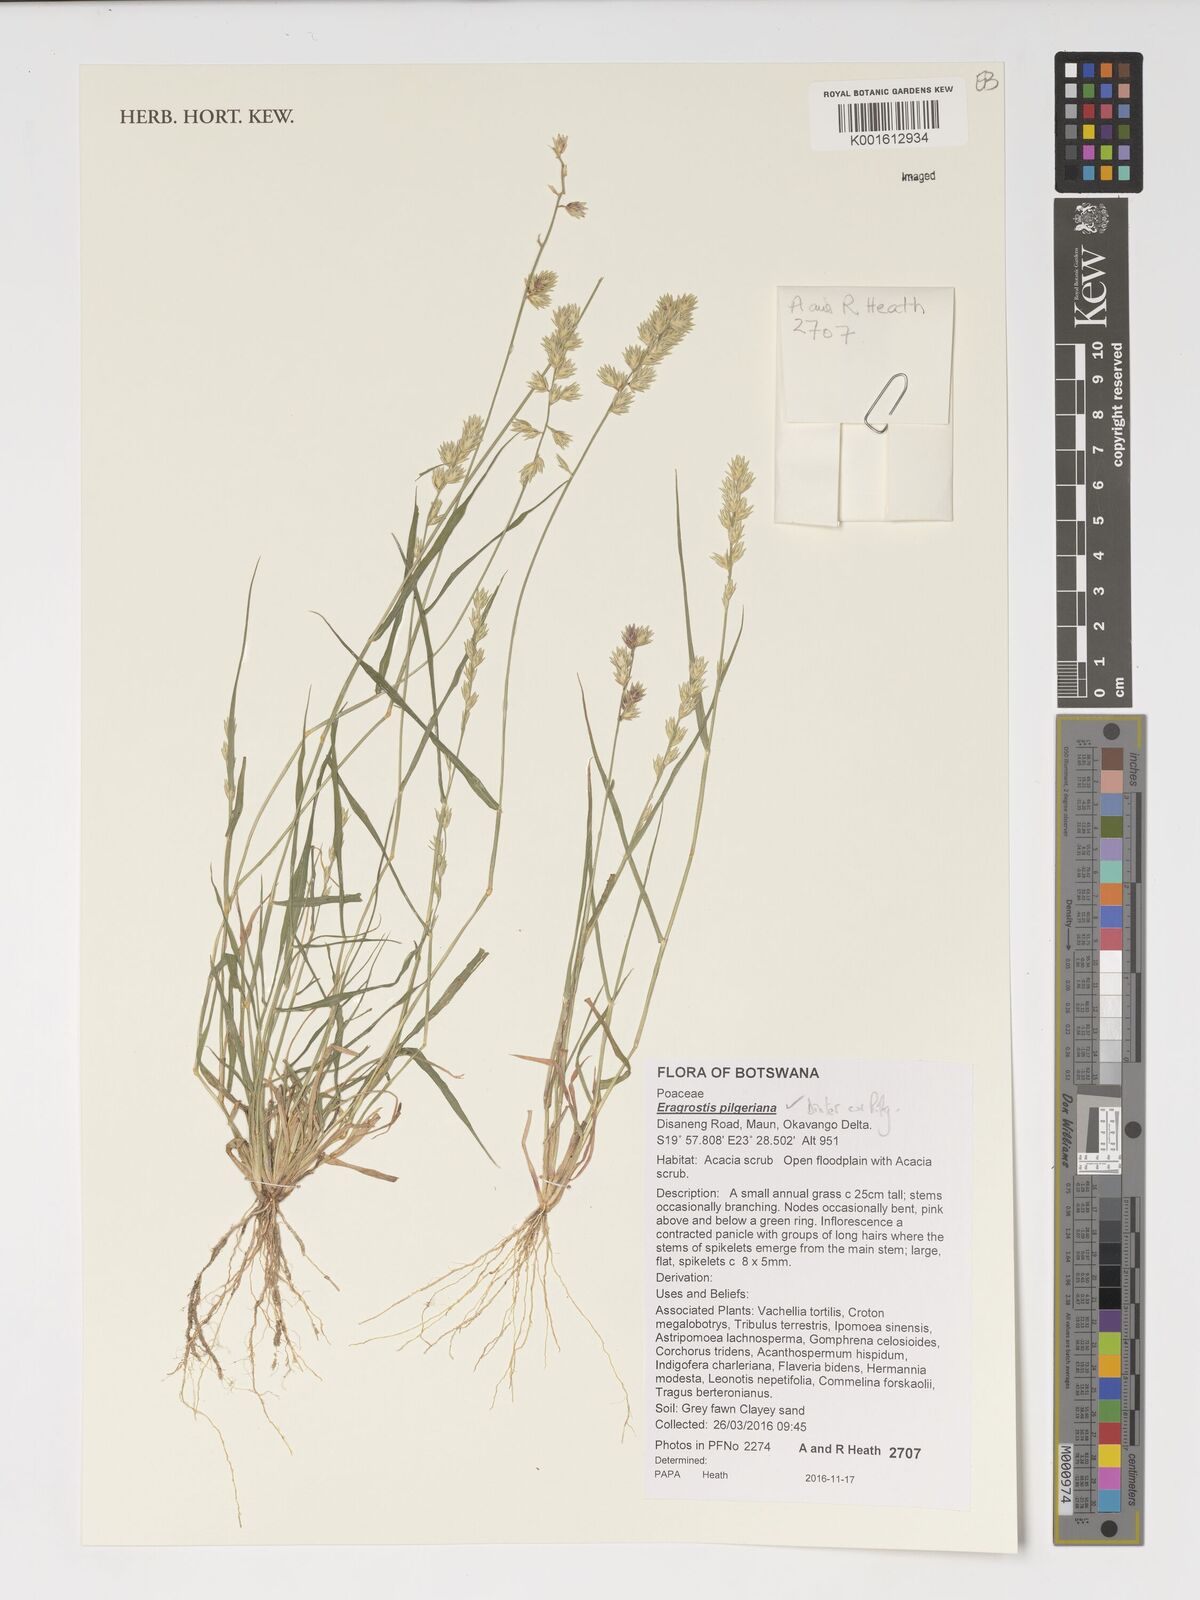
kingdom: Plantae
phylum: Tracheophyta
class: Liliopsida
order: Poales
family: Poaceae
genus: Eragrostis
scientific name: Eragrostis pilgeriana
